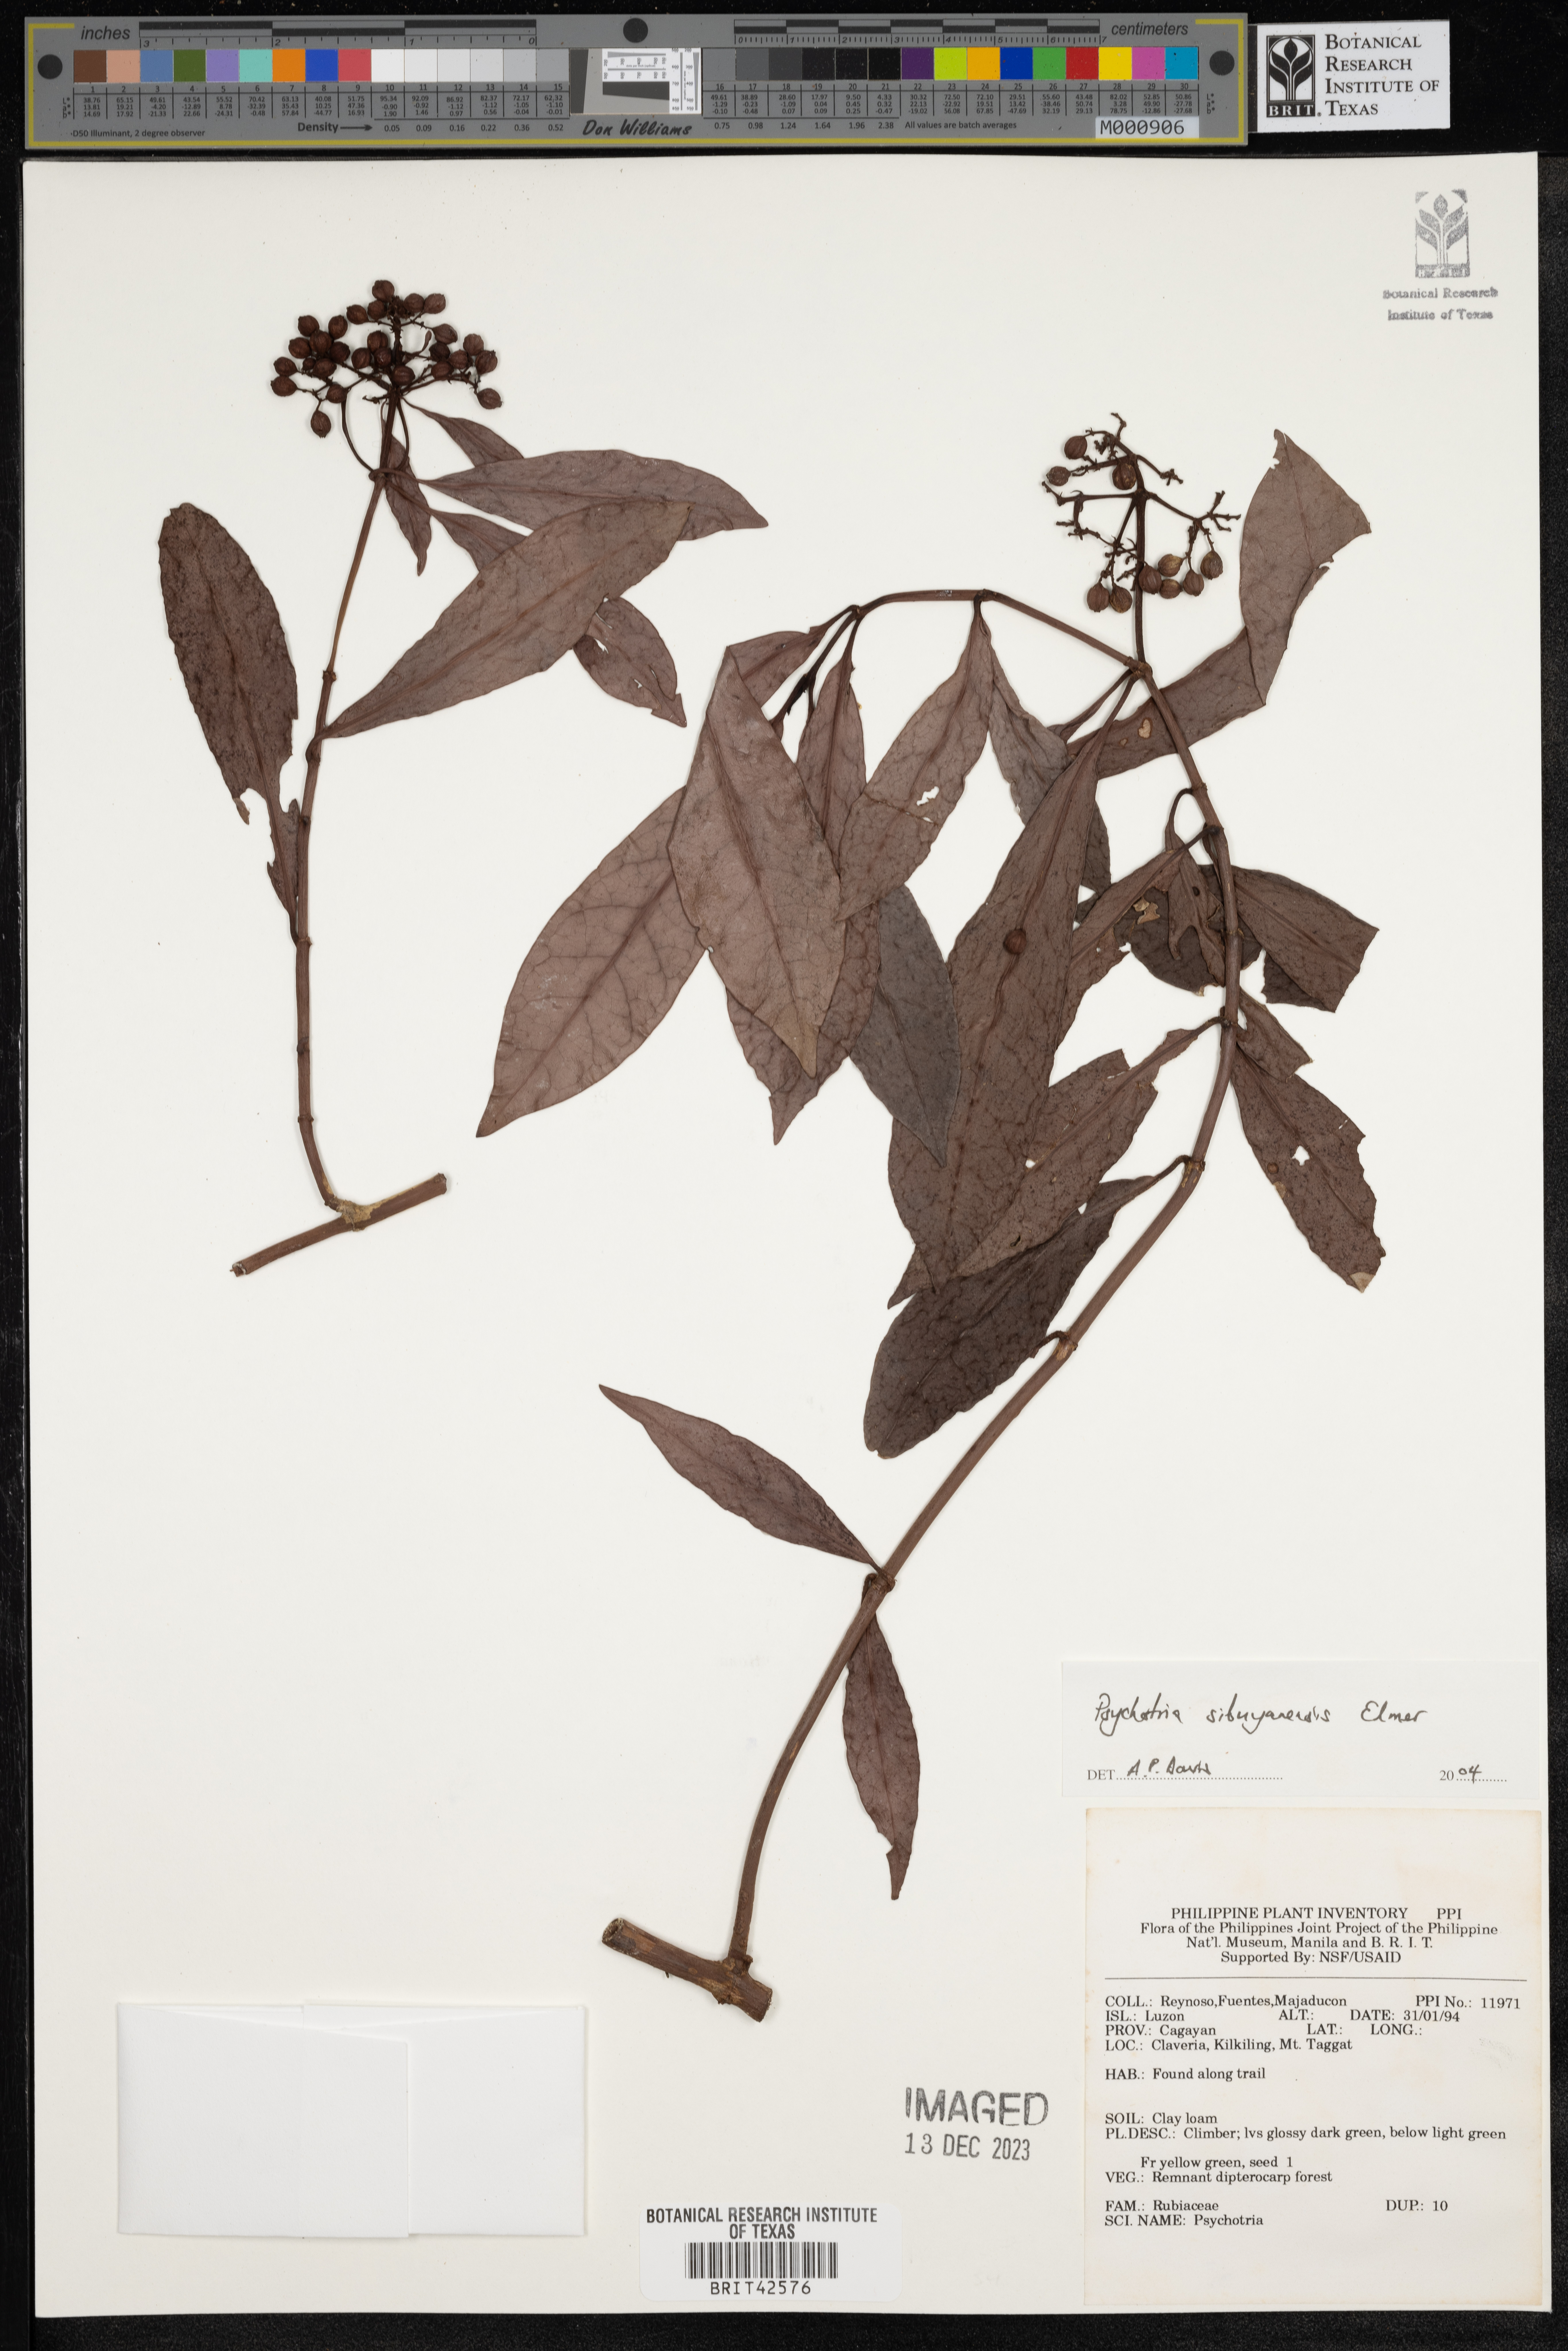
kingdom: Plantae
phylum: Tracheophyta
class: Magnoliopsida
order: Gentianales
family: Rubiaceae
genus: Psychotria
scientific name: Psychotria sibuyanensis
